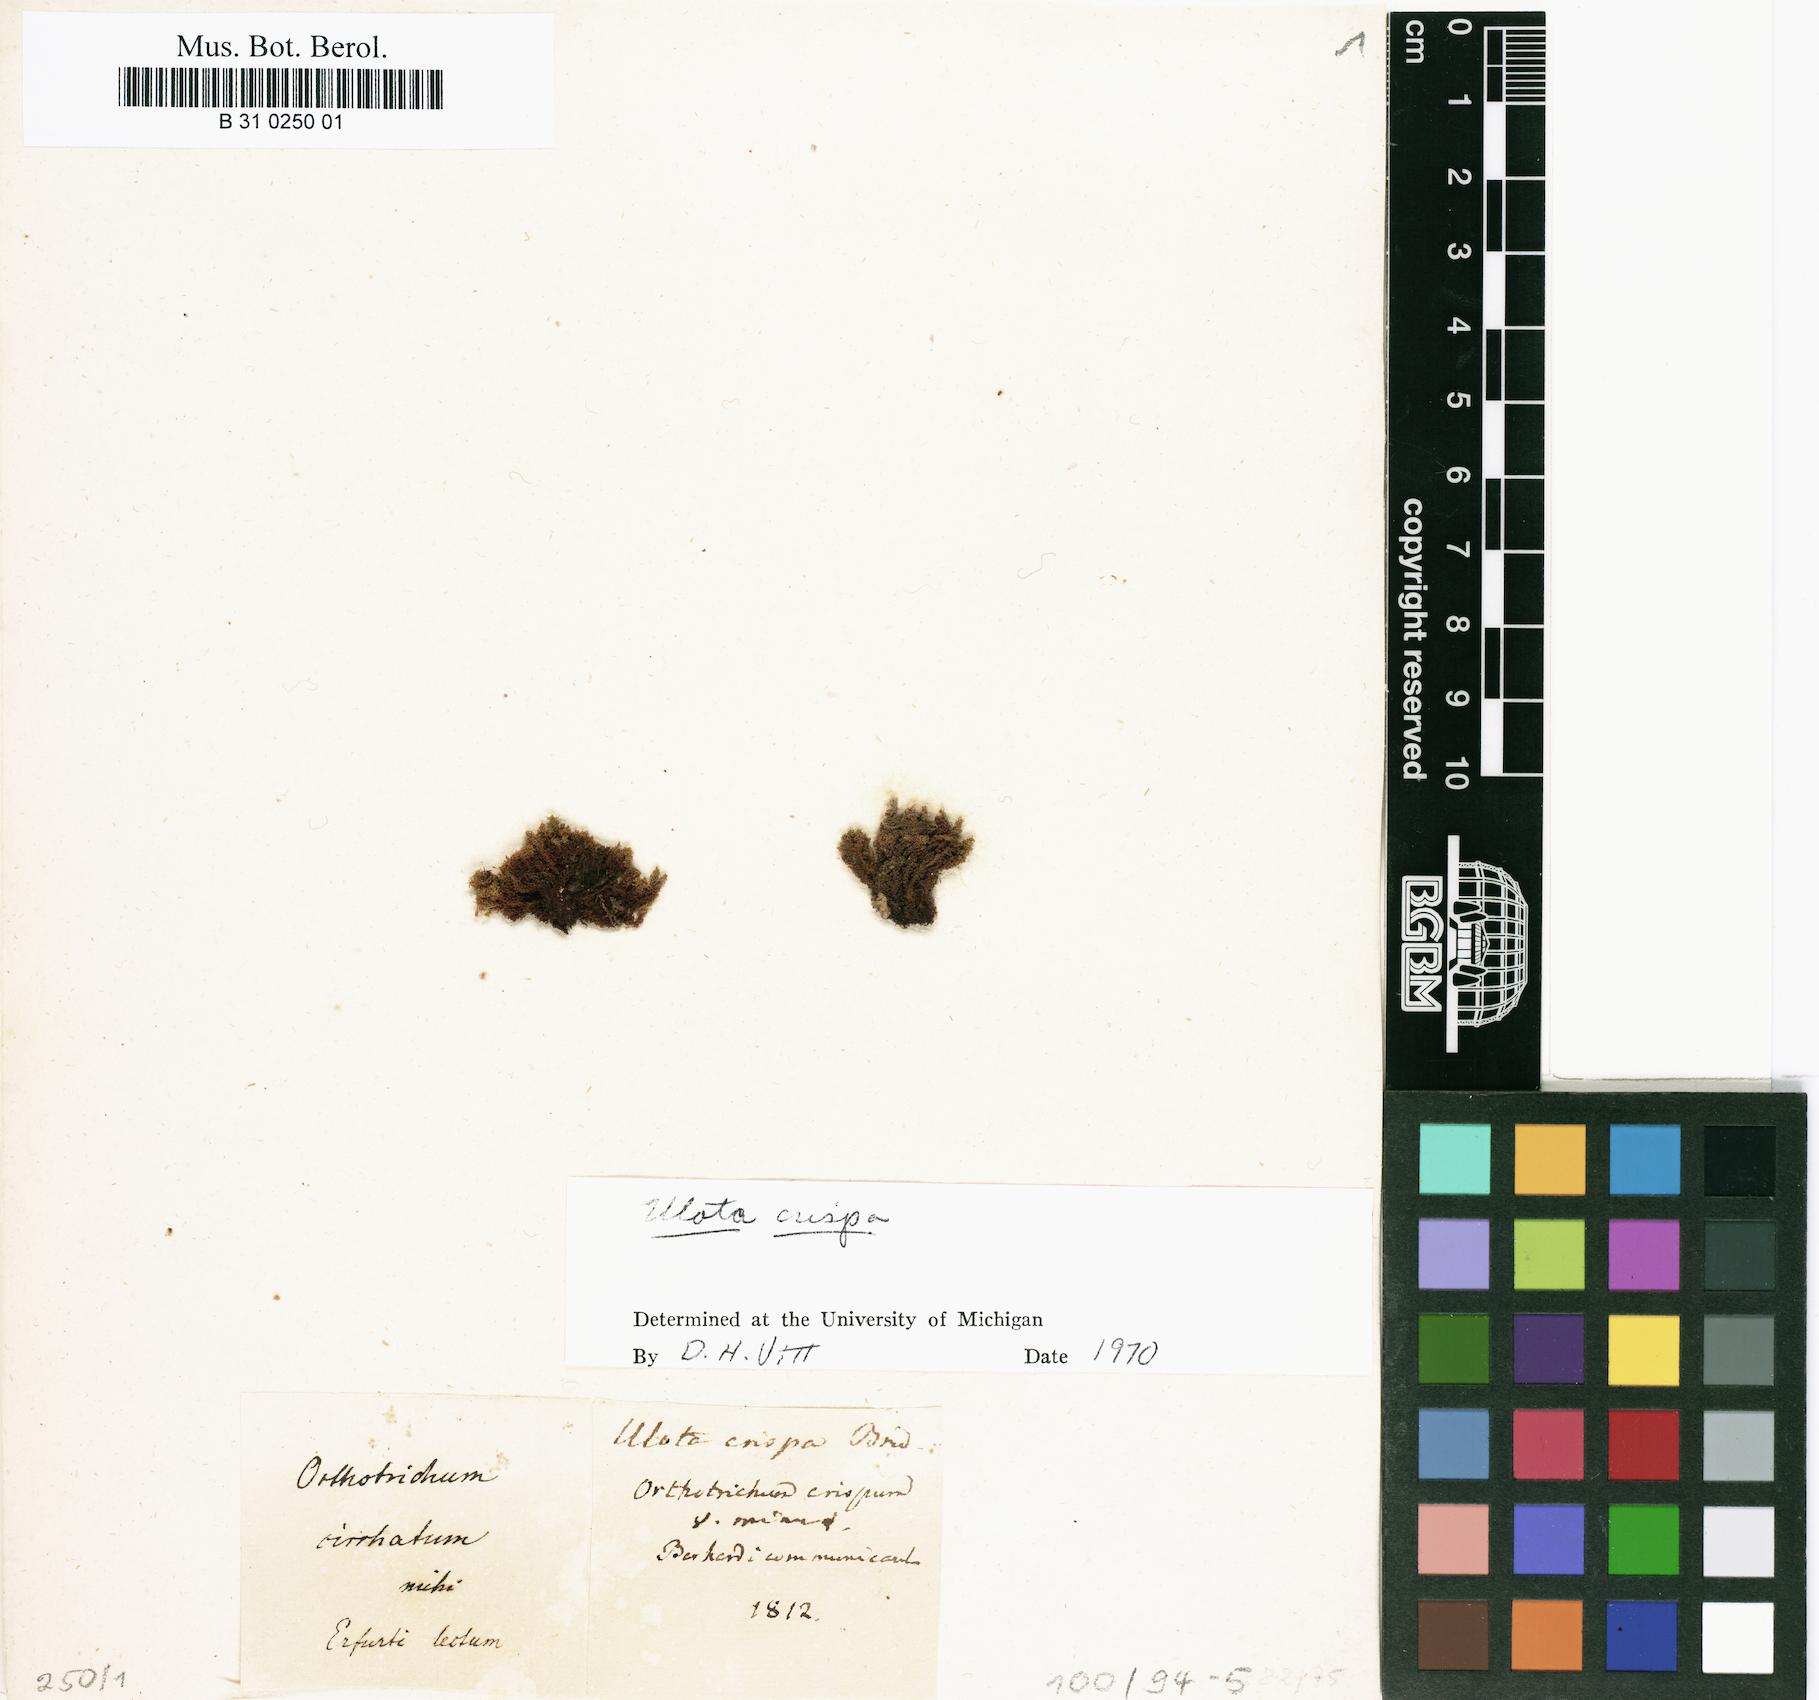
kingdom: Plantae
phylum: Bryophyta
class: Bryopsida
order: Orthotrichales
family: Orthotrichaceae
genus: Ulota
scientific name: Ulota crispa
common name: Crisped pincushion moss
